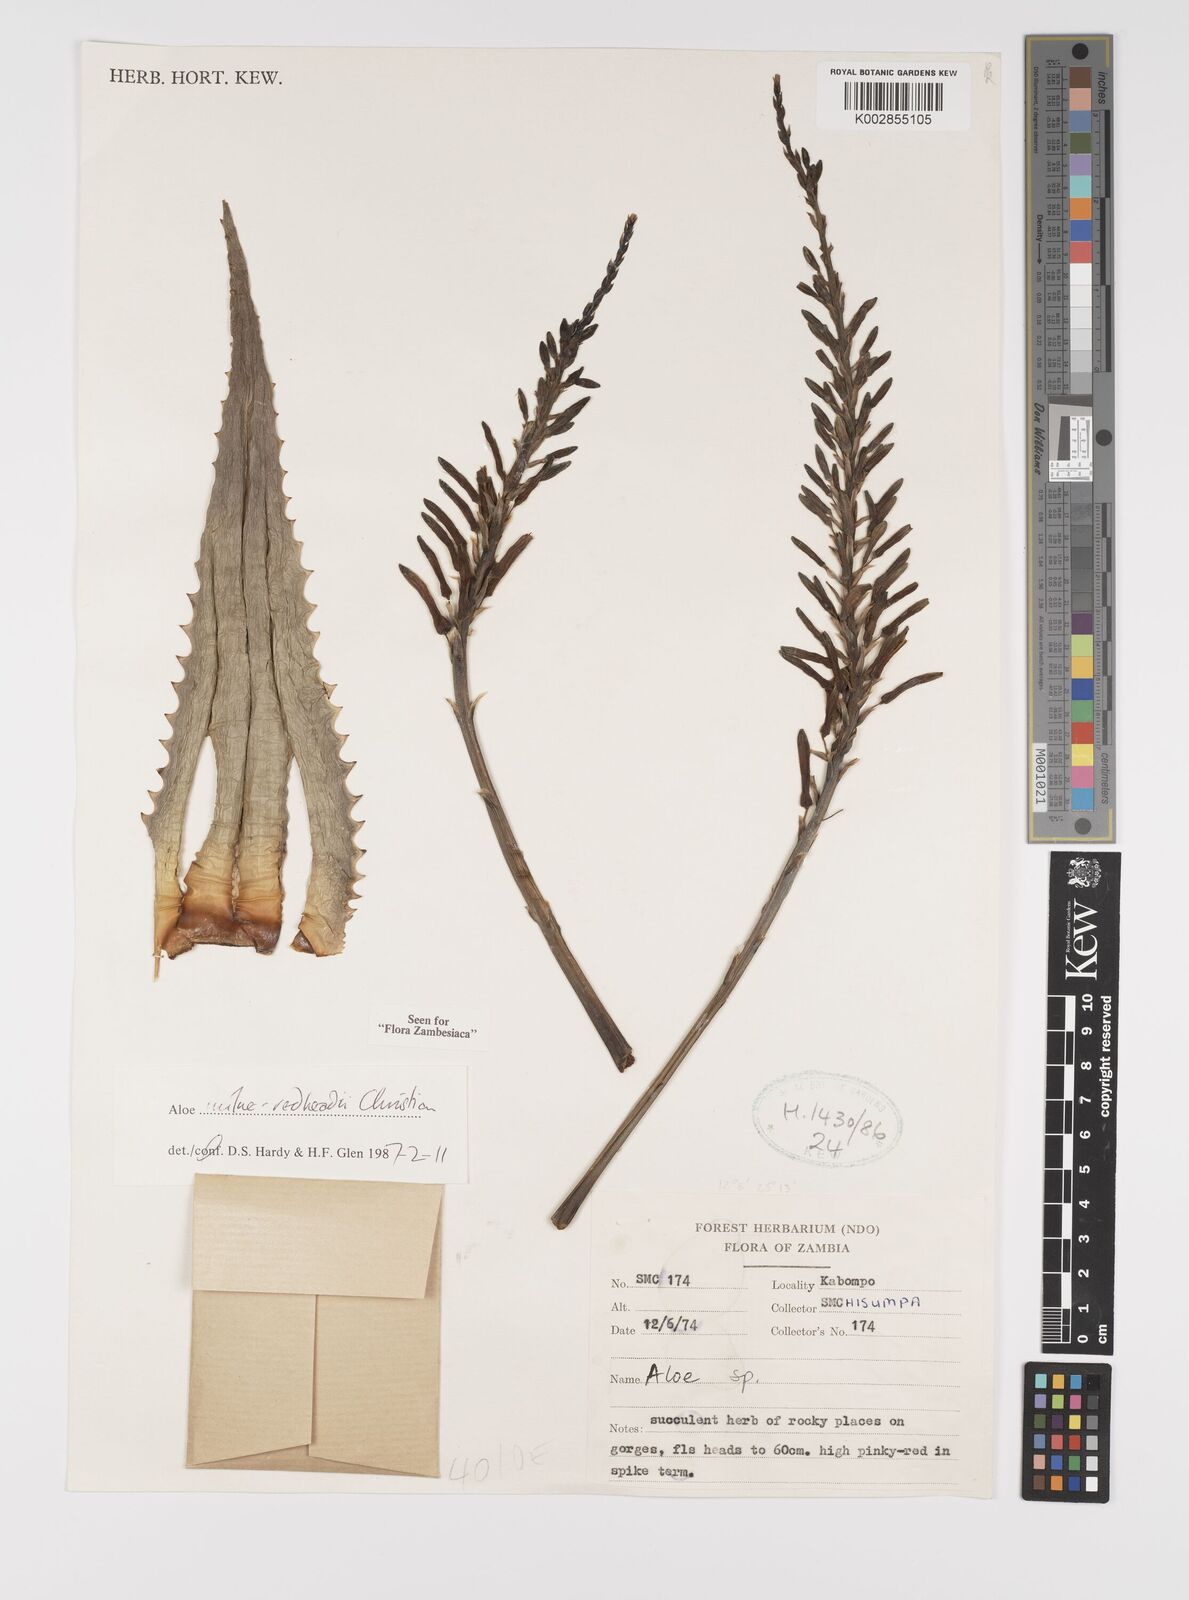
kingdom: Plantae
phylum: Tracheophyta
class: Liliopsida
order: Asparagales
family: Asphodelaceae
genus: Aloe
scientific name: Aloe milne-redheadii
